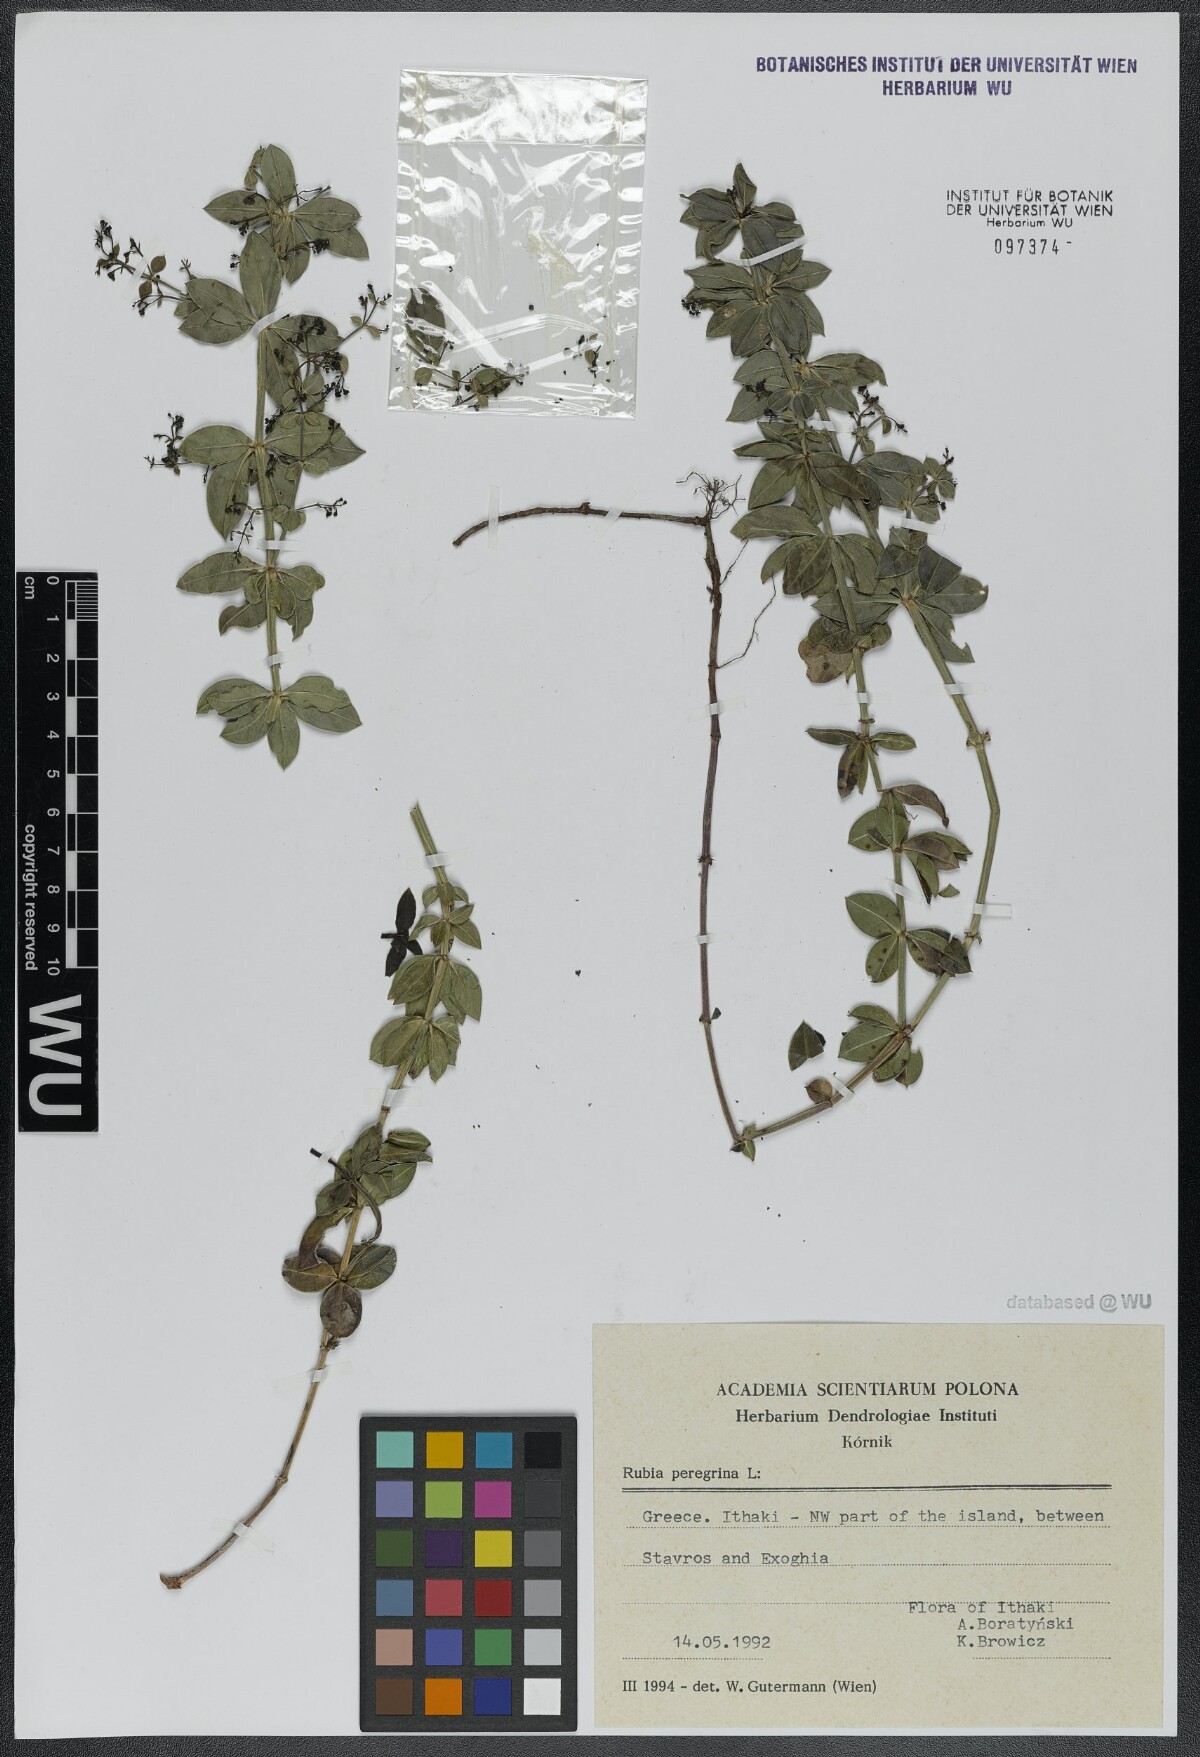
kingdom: Plantae
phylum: Tracheophyta
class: Magnoliopsida
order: Gentianales
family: Rubiaceae
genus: Rubia
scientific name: Rubia peregrina
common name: Wild madder
